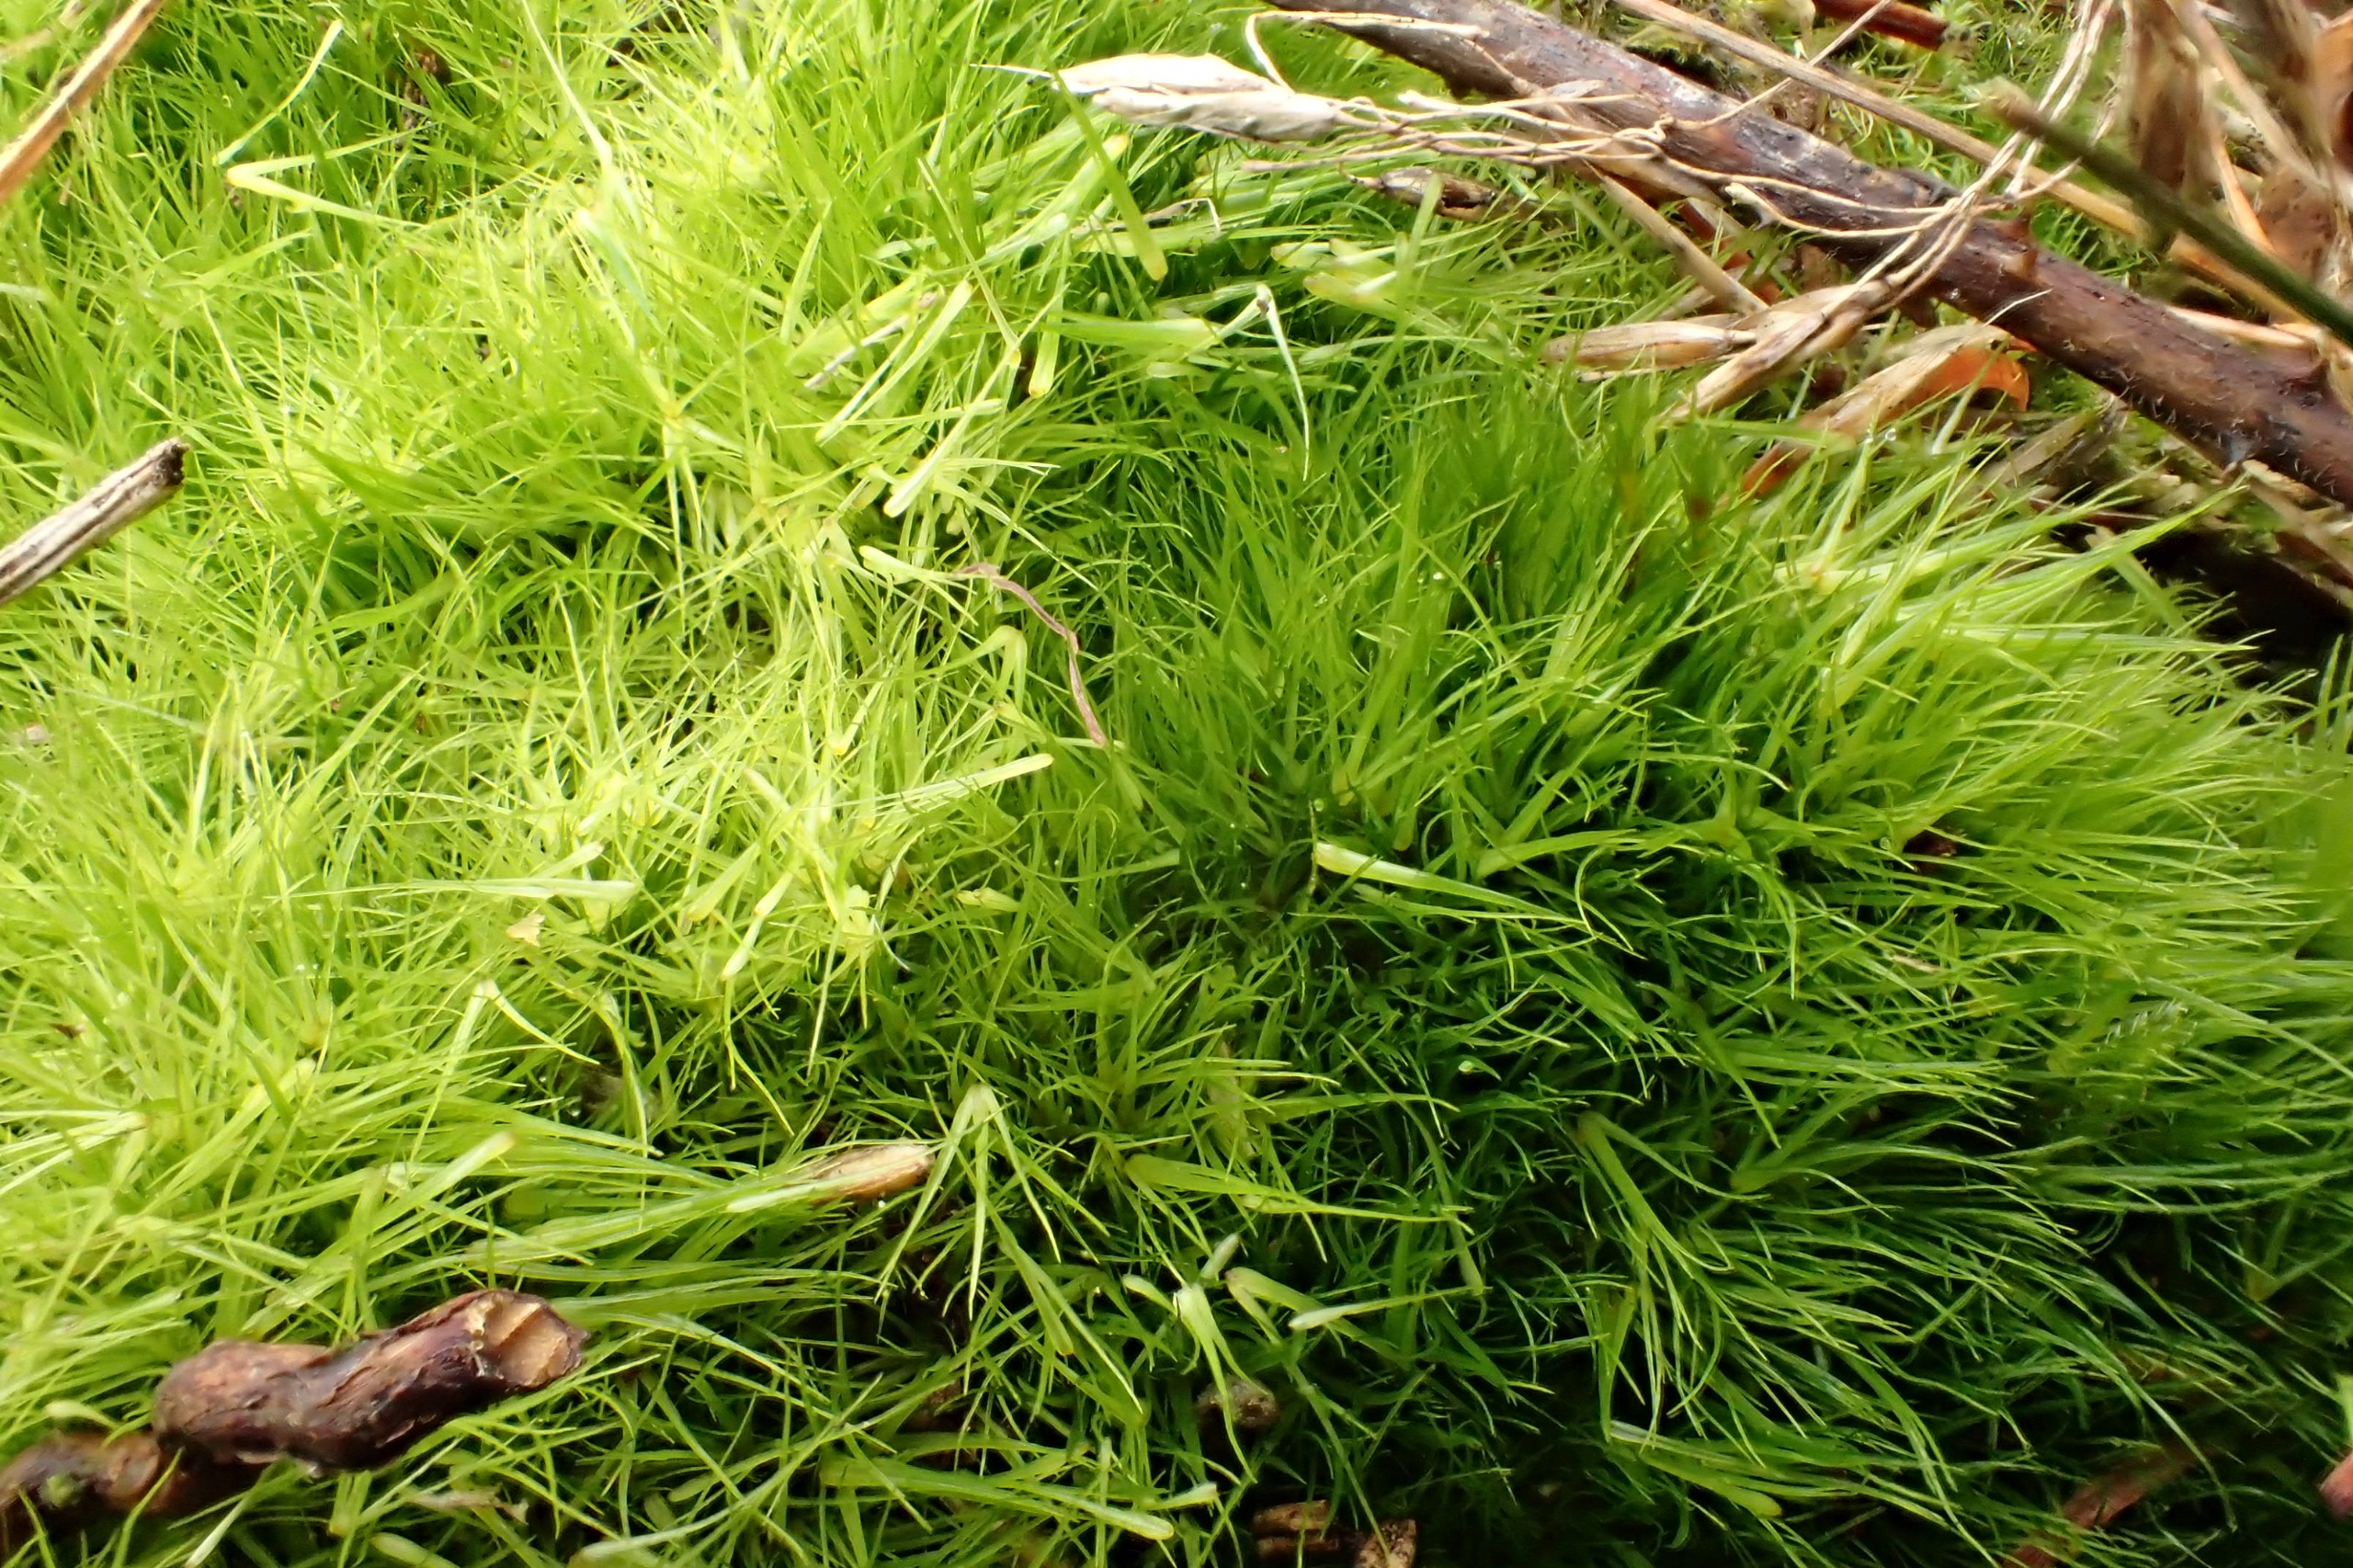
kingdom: Plantae
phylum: Bryophyta
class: Bryopsida
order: Dicranales
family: Leucobryaceae
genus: Campylopus
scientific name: Campylopus pyriformis
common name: Almindelig bredribbe
